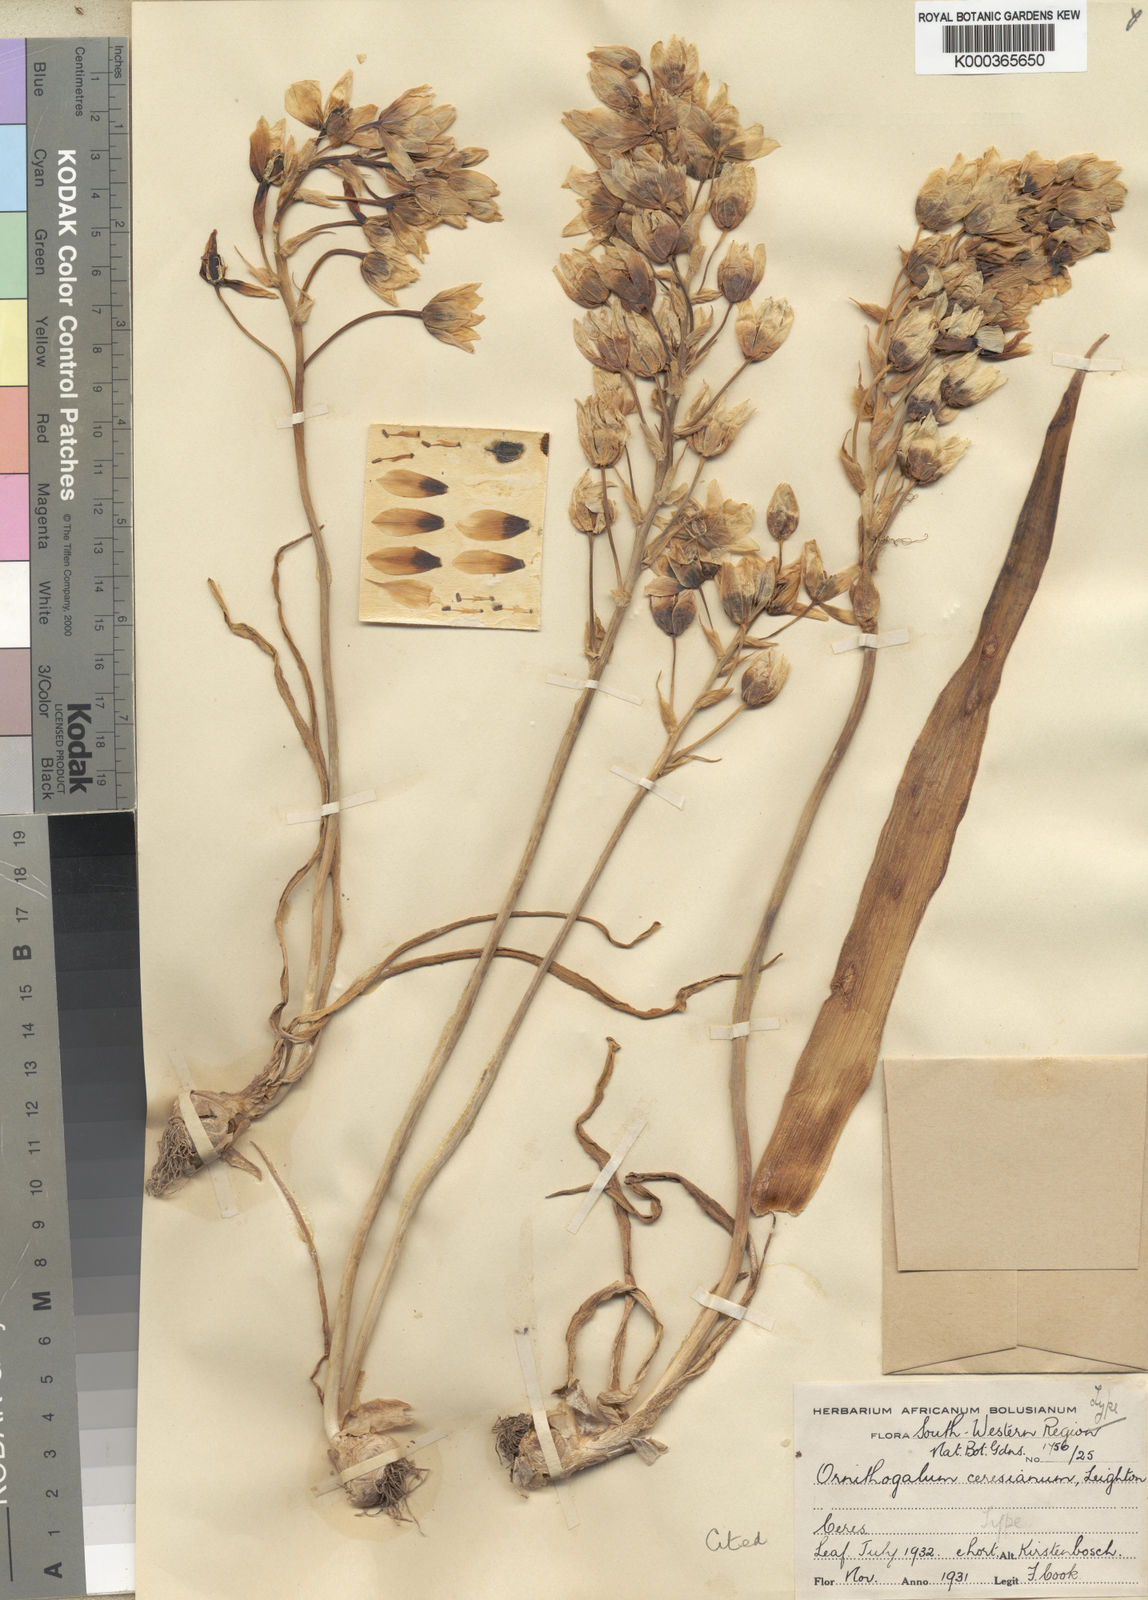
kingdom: Plantae
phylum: Tracheophyta
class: Liliopsida
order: Asparagales
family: Asparagaceae
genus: Ornithogalum
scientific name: Ornithogalum thyrsoides
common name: Chincherinchee
